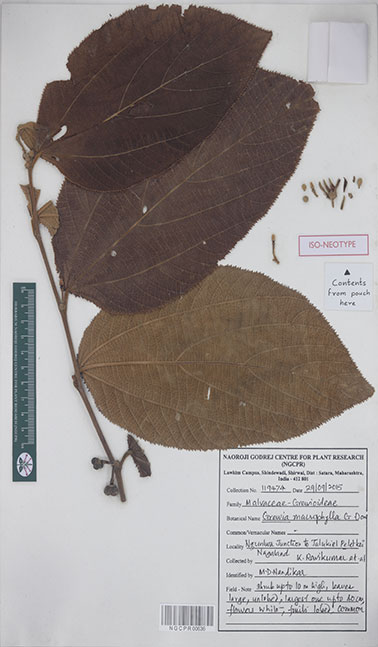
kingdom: Plantae
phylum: Tracheophyta
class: Magnoliopsida
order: Malvales
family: Malvaceae
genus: Grewia
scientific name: Grewia macrophylla
